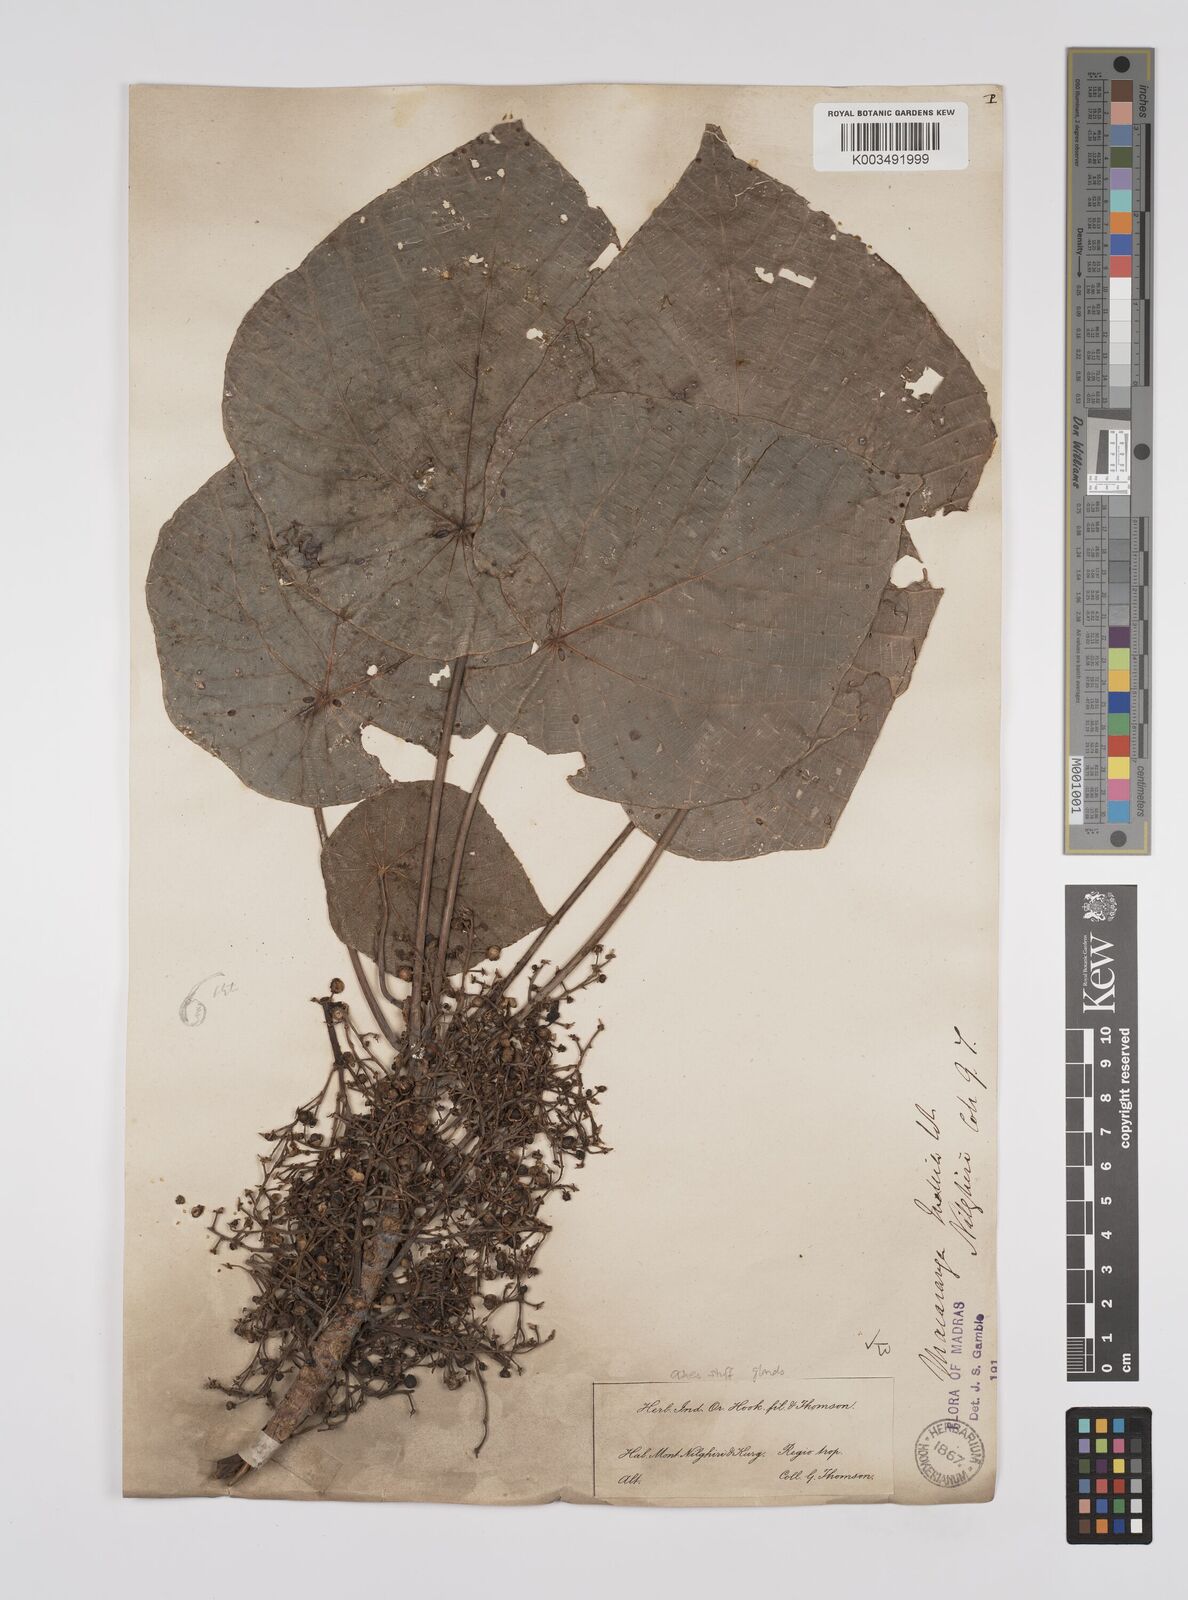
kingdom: Plantae
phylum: Tracheophyta
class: Magnoliopsida
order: Malpighiales
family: Euphorbiaceae
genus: Macaranga
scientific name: Macaranga indica
